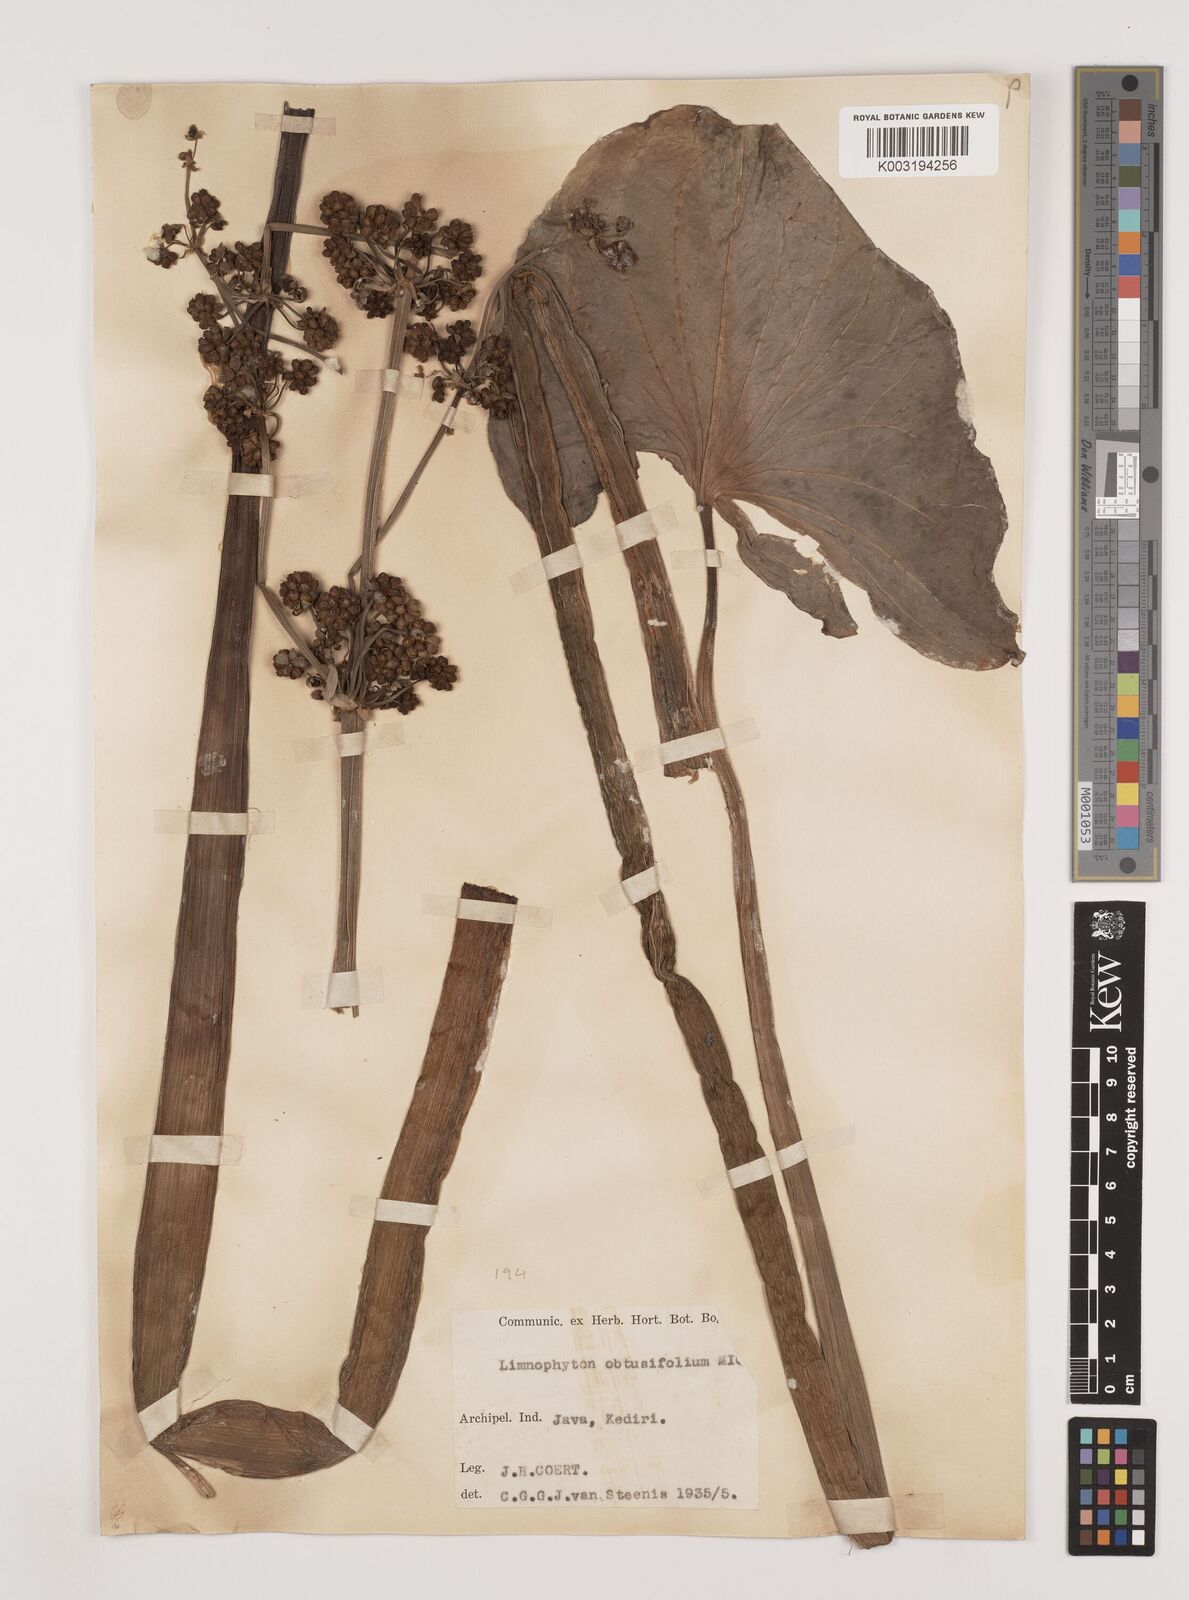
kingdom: Plantae
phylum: Tracheophyta
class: Liliopsida
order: Alismatales
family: Alismataceae
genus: Limnophyton
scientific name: Limnophyton obtusifolium
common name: Arrow head
